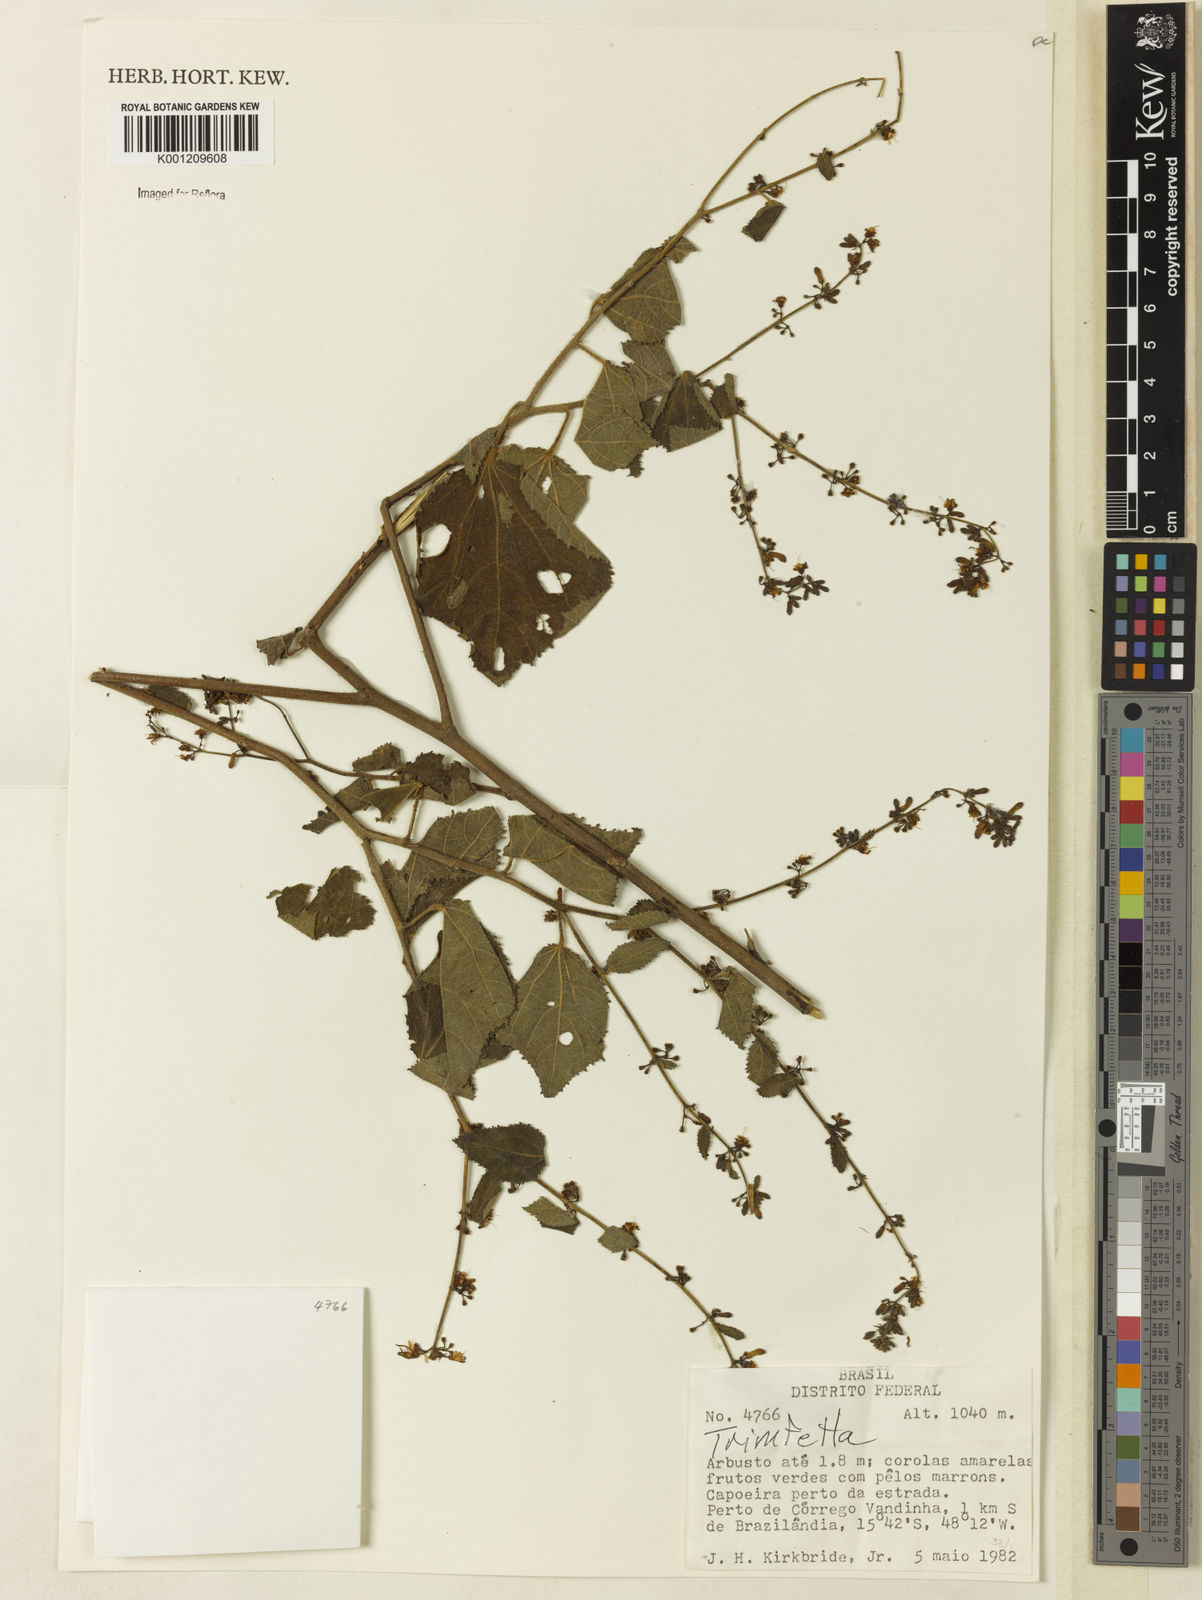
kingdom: Plantae
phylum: Tracheophyta
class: Magnoliopsida
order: Malvales
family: Malvaceae
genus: Triumfetta
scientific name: Triumfetta
